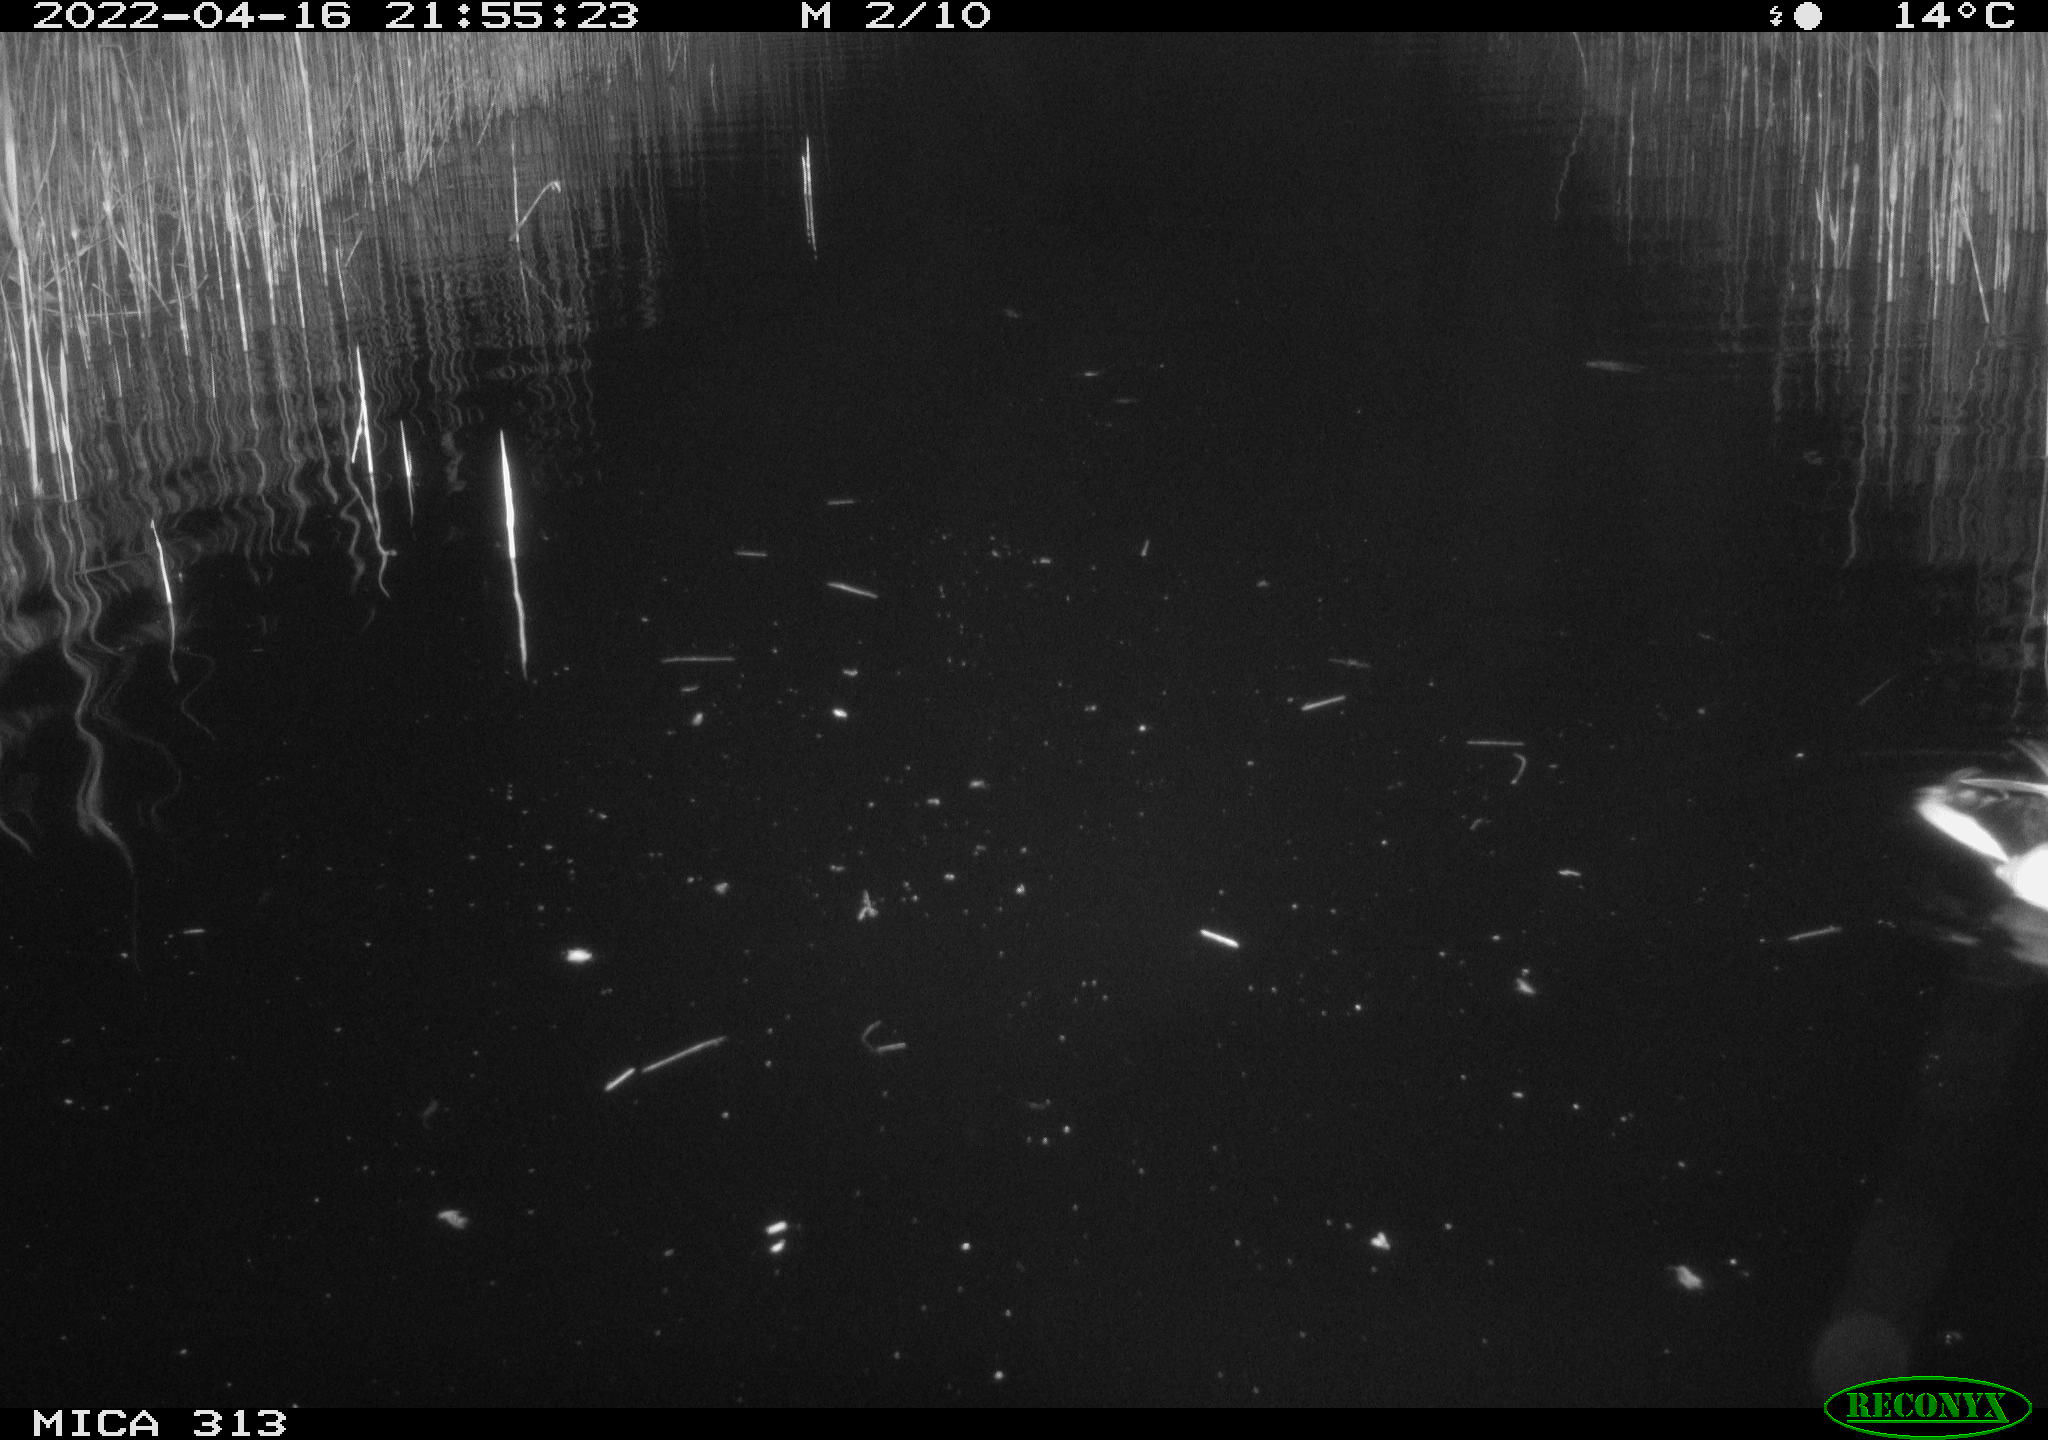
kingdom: Animalia
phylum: Chordata
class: Aves
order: Anseriformes
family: Anatidae
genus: Anas
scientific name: Anas platyrhynchos
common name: Mallard
